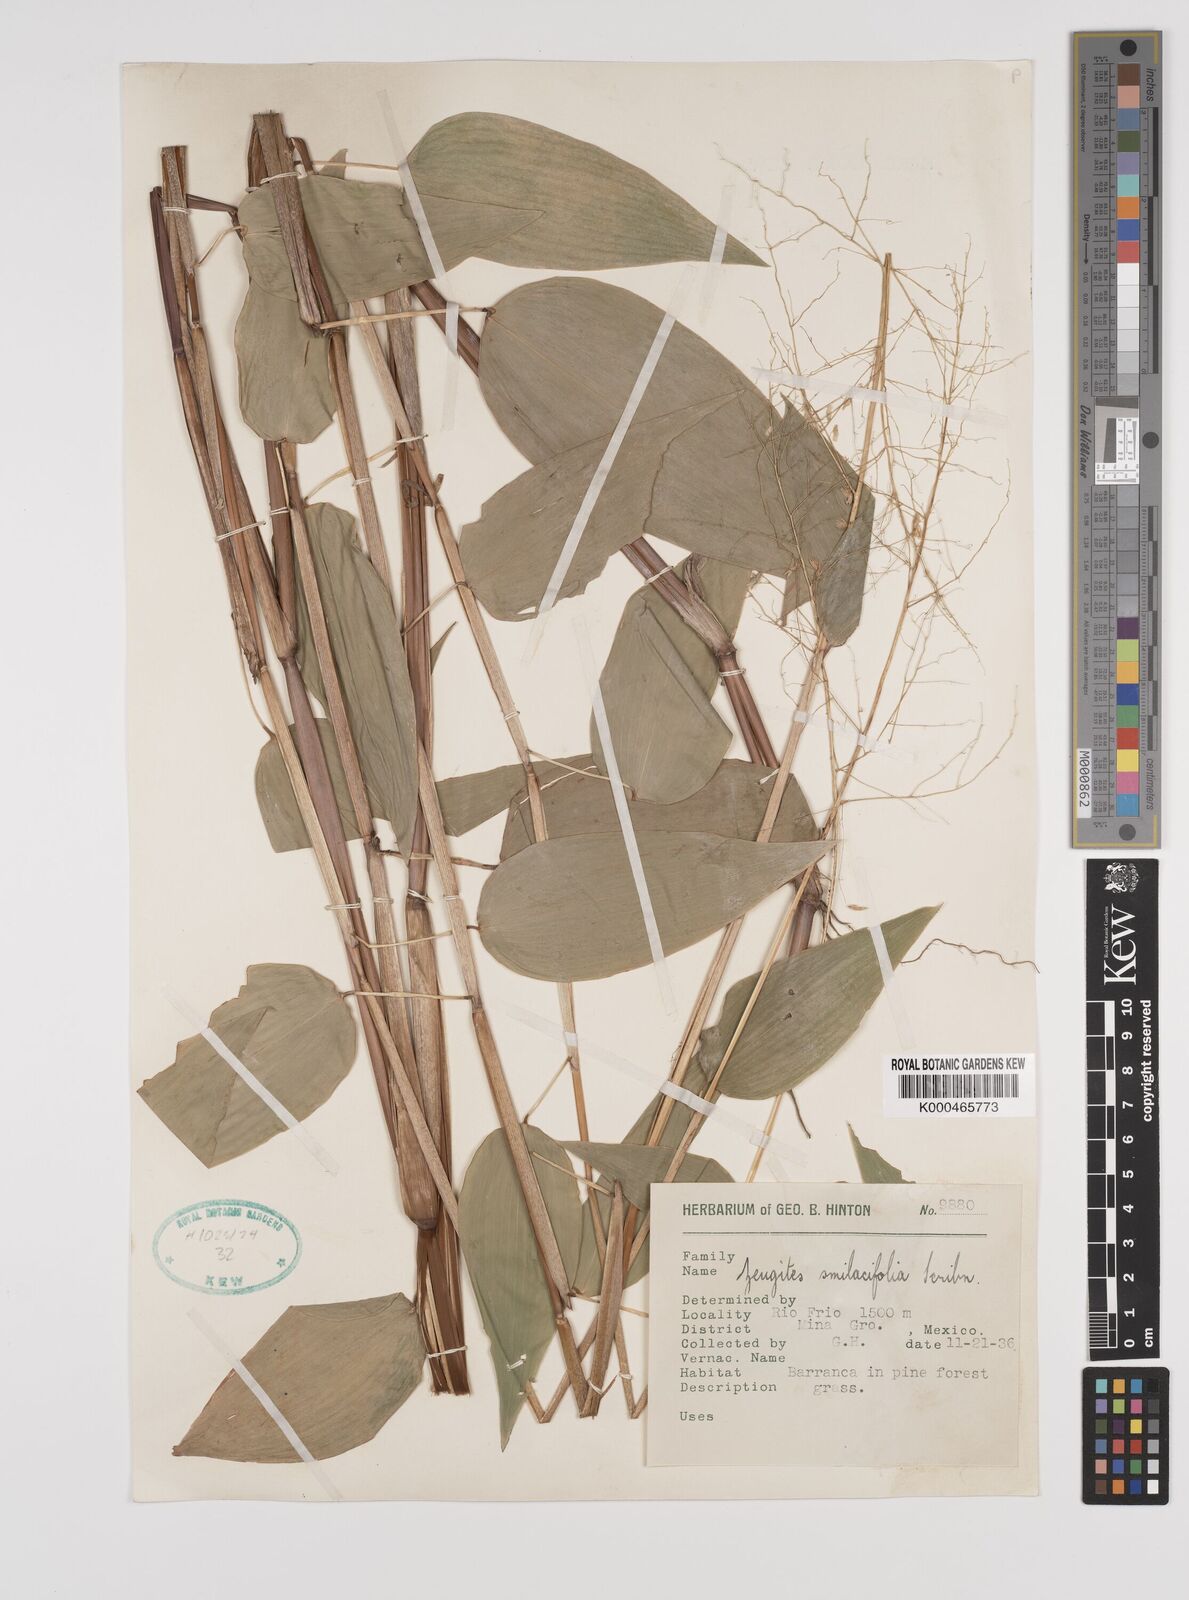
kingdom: Plantae
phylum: Tracheophyta
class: Liliopsida
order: Poales
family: Poaceae
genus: Zeugites
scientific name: Zeugites smilacifolius
